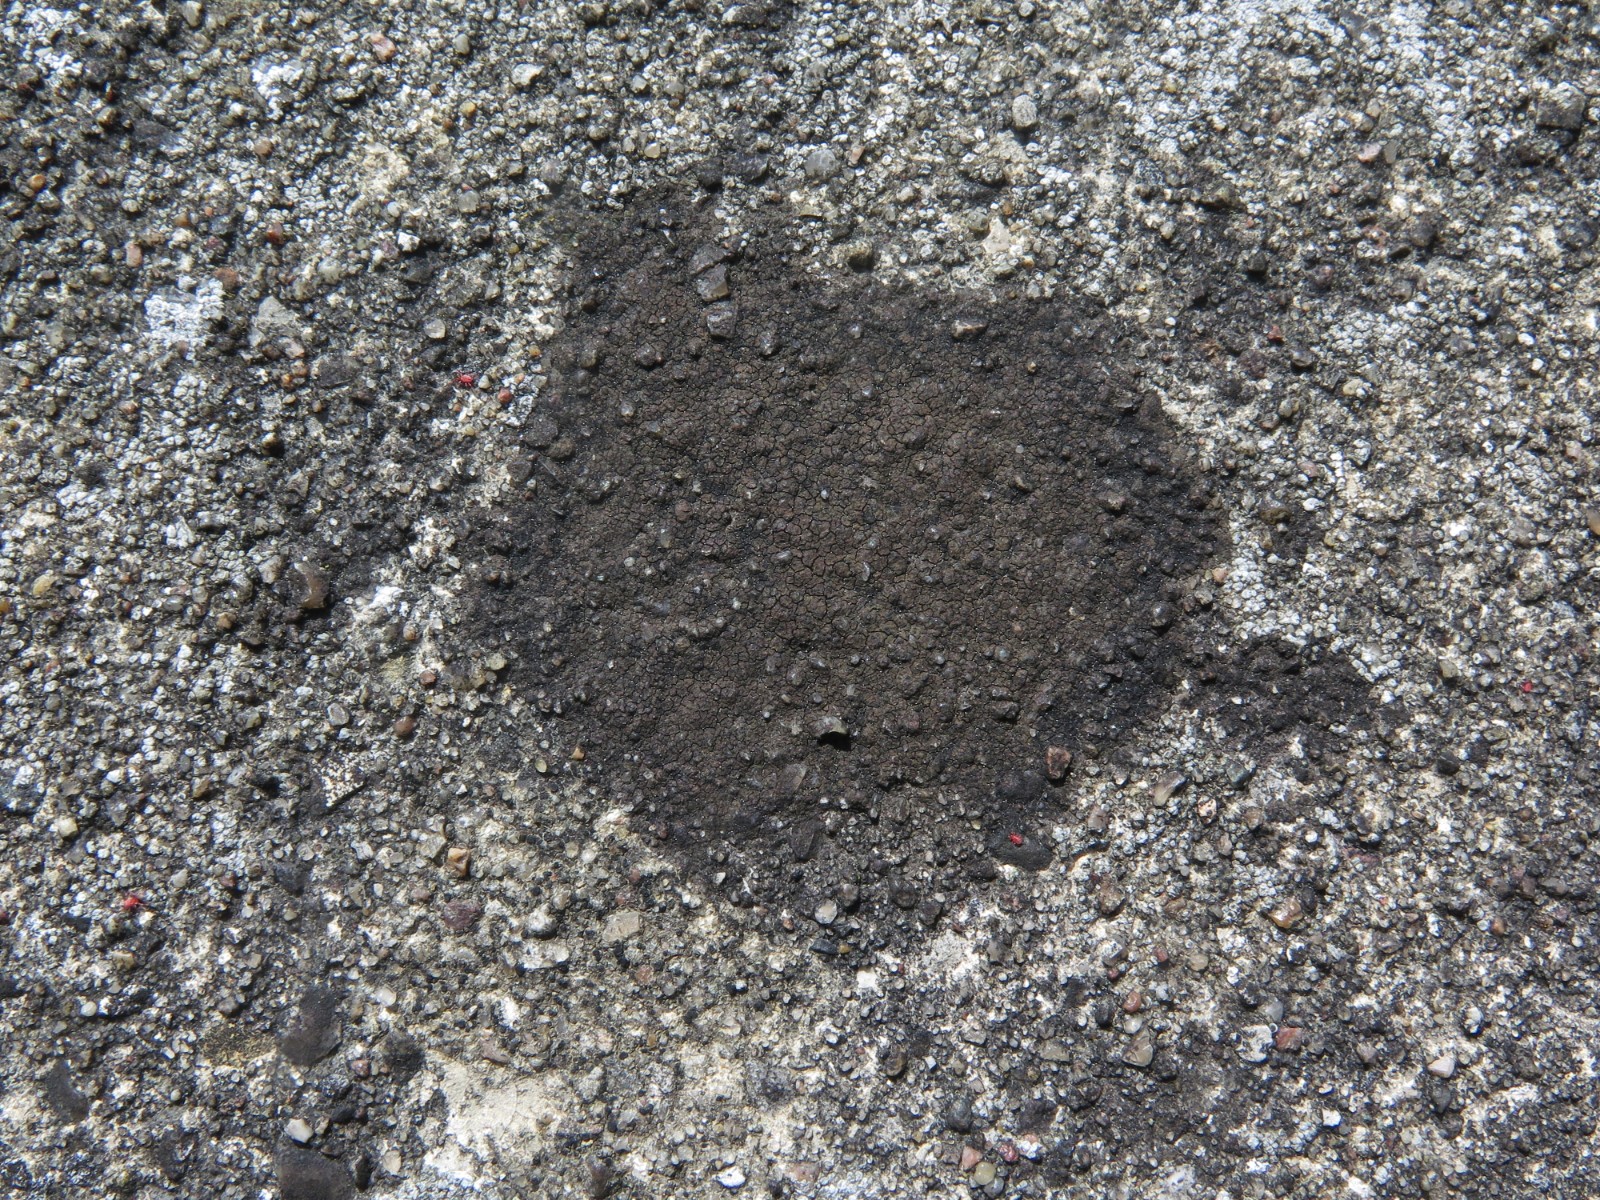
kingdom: Fungi
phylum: Ascomycota
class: Eurotiomycetes
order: Verrucariales
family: Verrucariaceae
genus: Verrucaria
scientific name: Verrucaria nigrescens
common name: sortbrun vortelav
